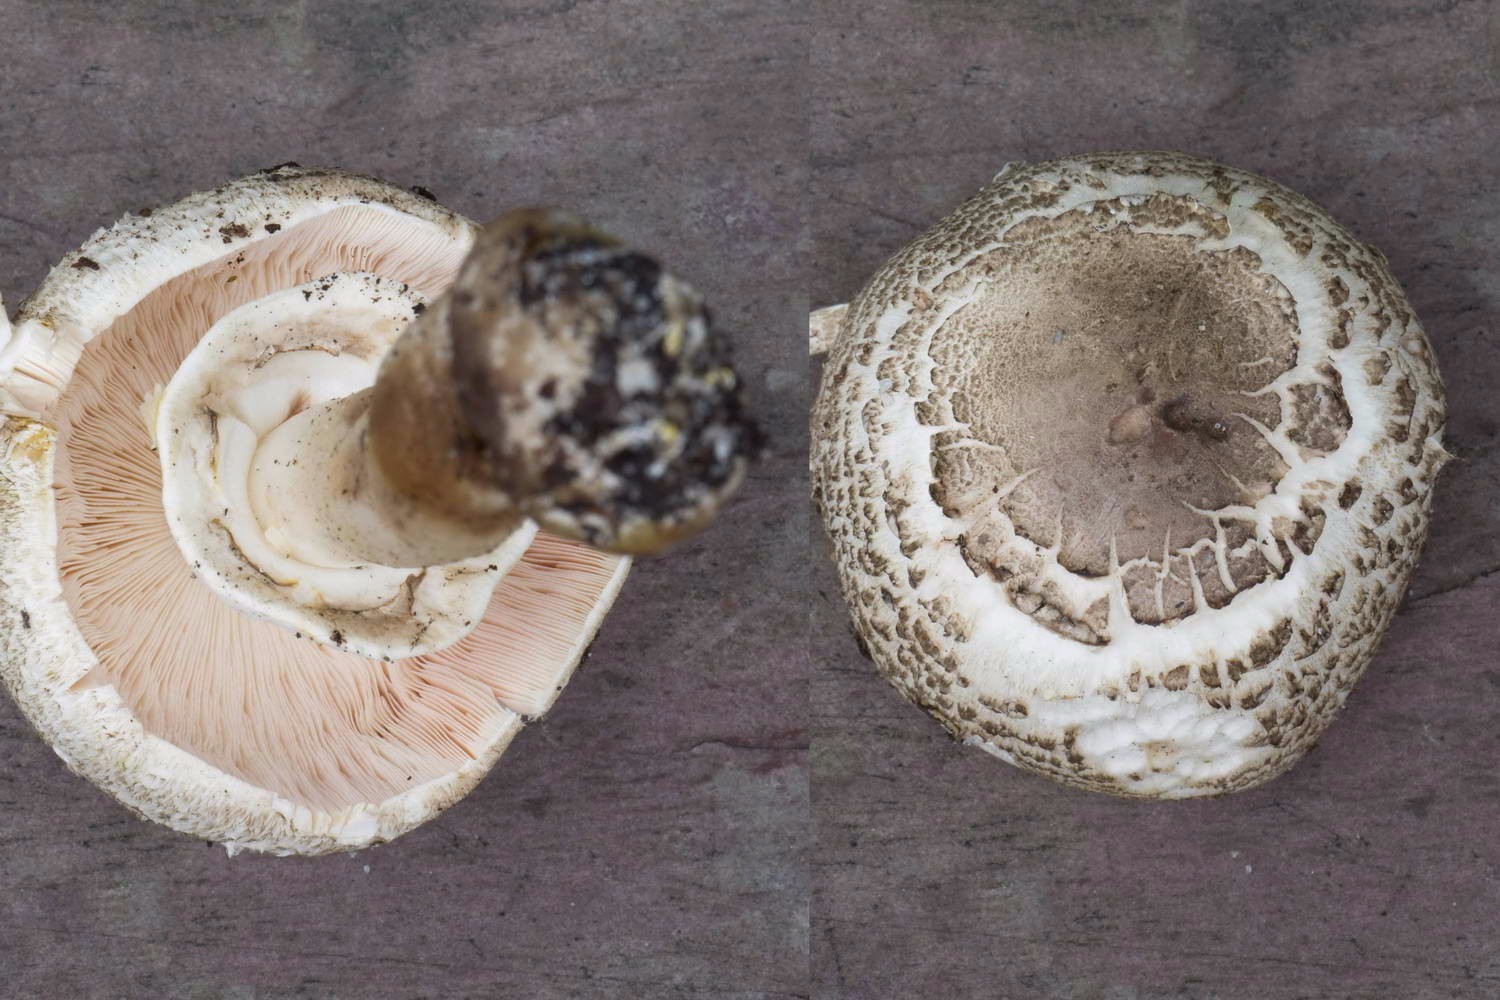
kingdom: Fungi
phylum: Basidiomycota
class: Agaricomycetes
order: Agaricales
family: Agaricaceae
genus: Agaricus
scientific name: Agaricus moelleri
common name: perlehøne-champignon
